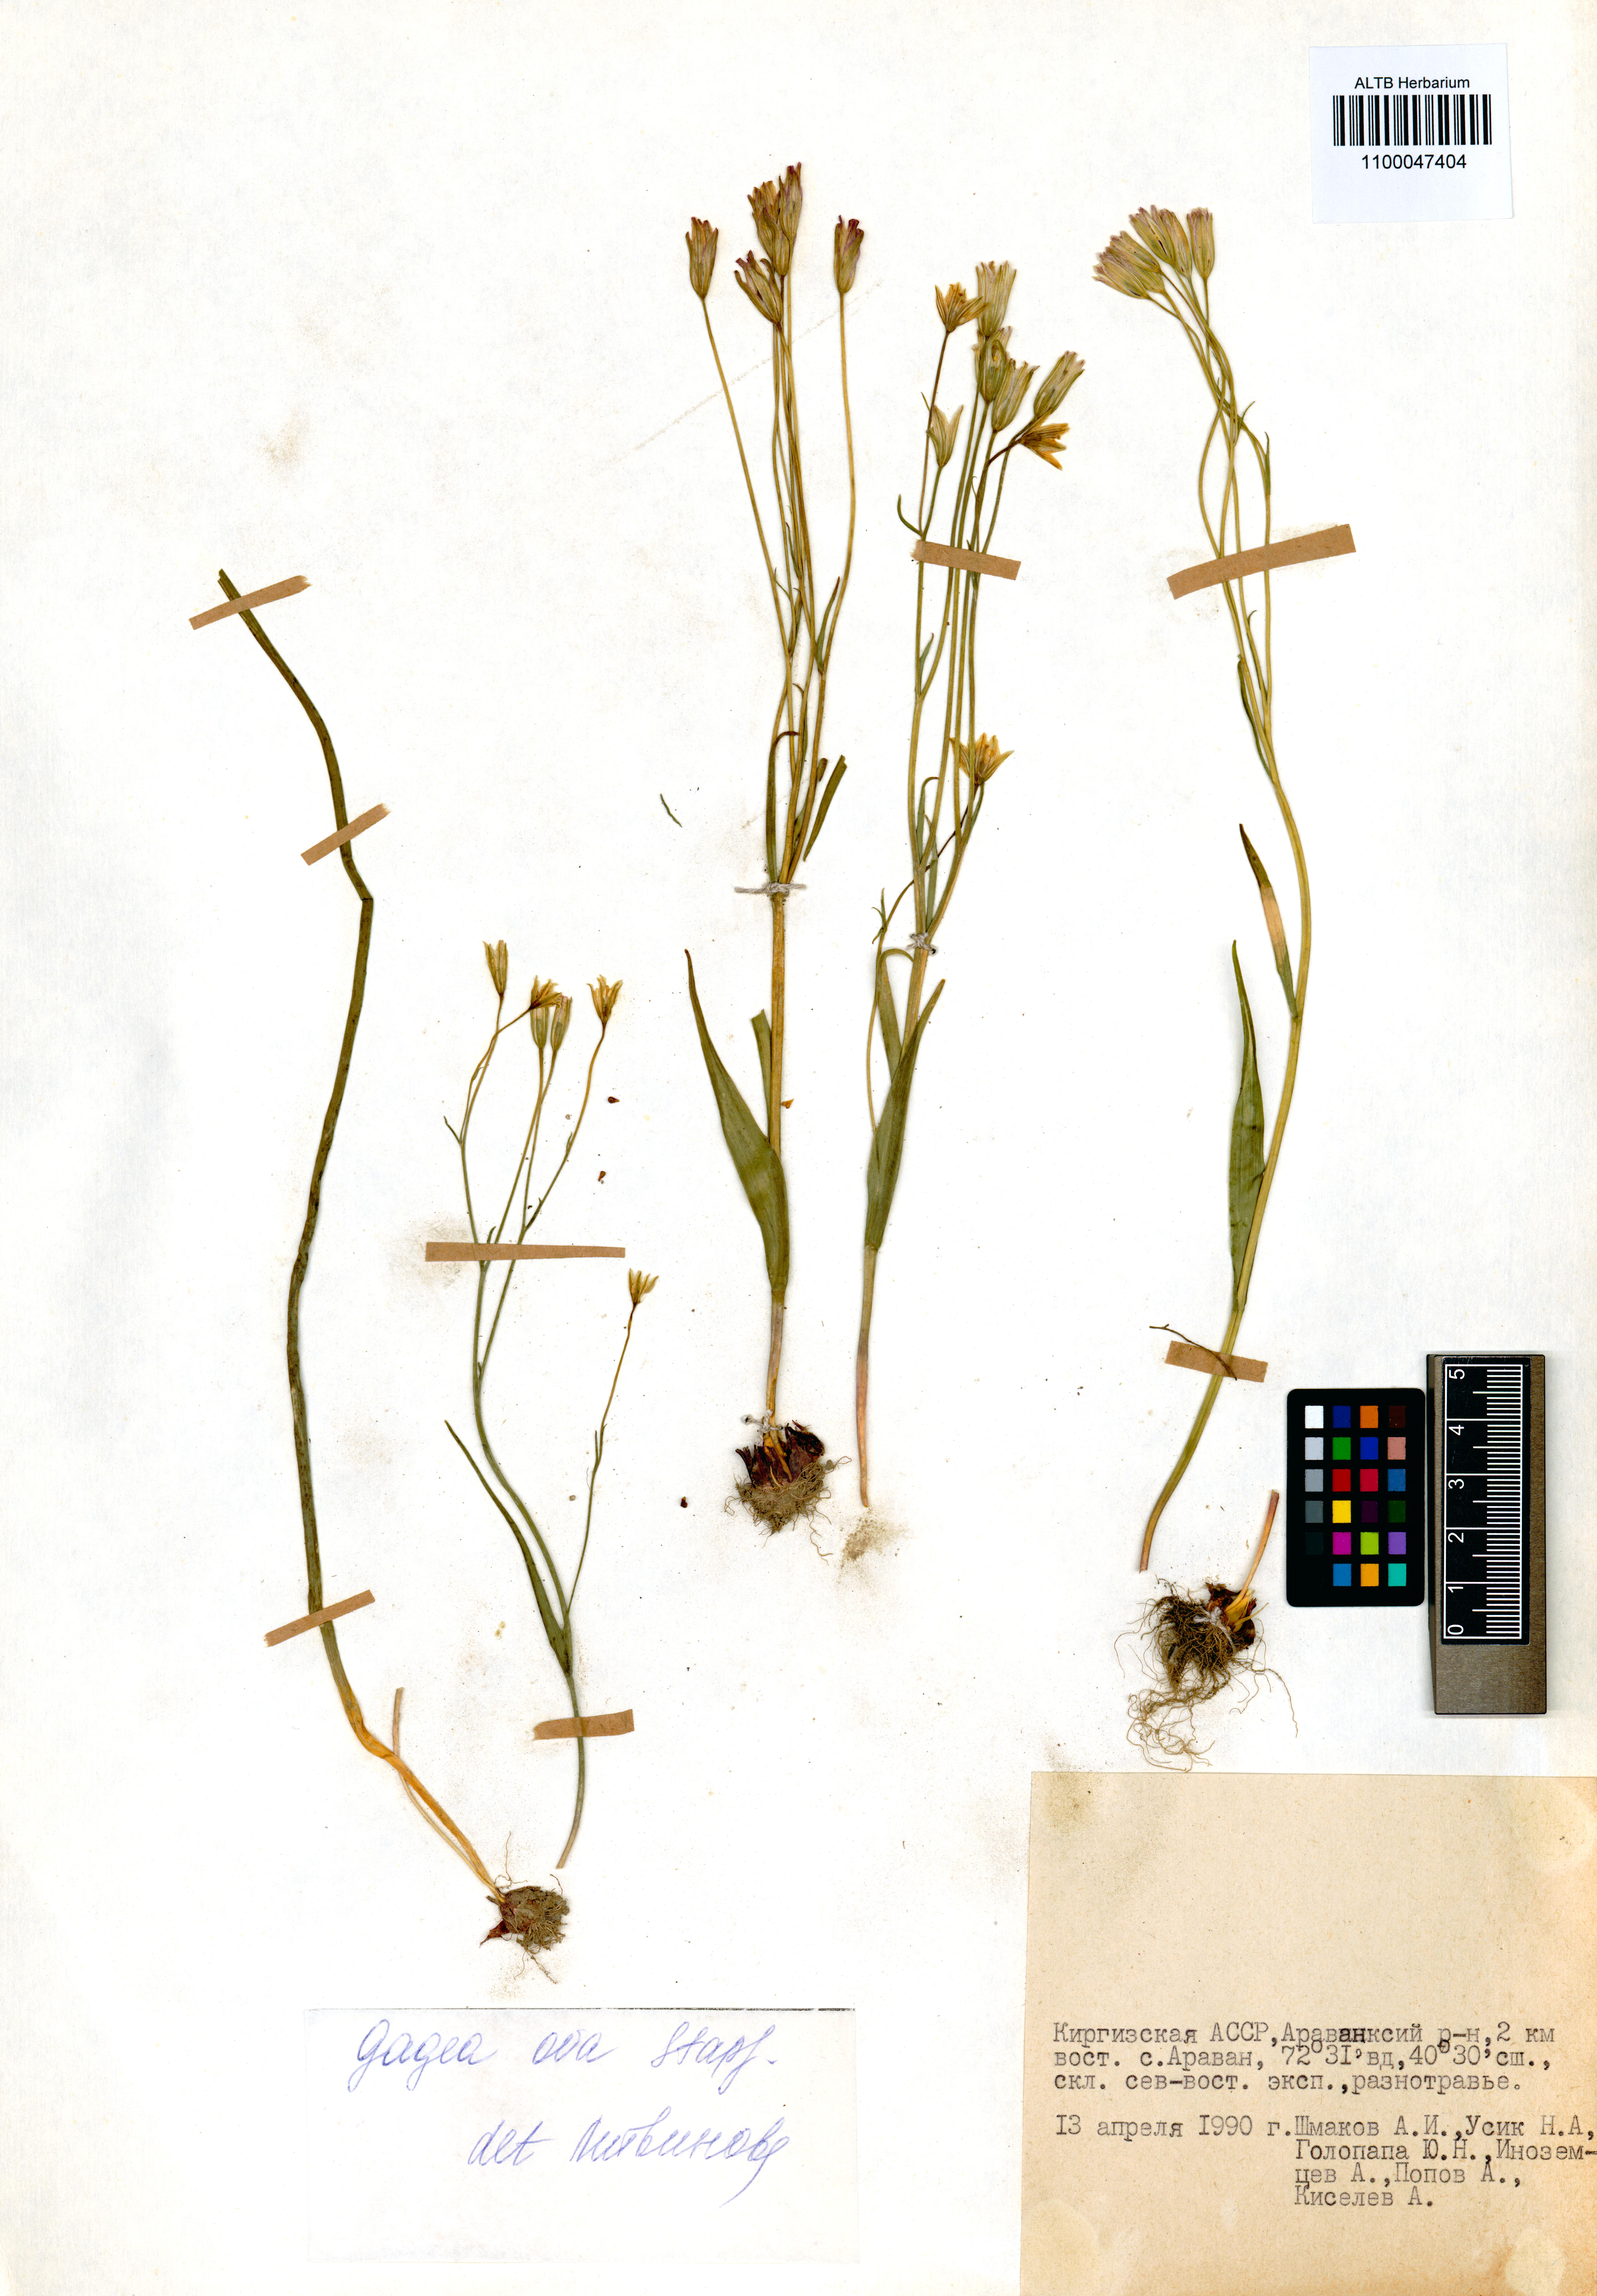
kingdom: Plantae
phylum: Tracheophyta
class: Liliopsida
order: Liliales
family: Liliaceae
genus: Gagea
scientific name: Gagea kunawurensis
